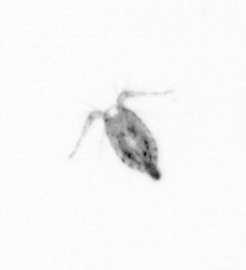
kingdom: Animalia
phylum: Arthropoda
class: Copepoda
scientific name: Copepoda
